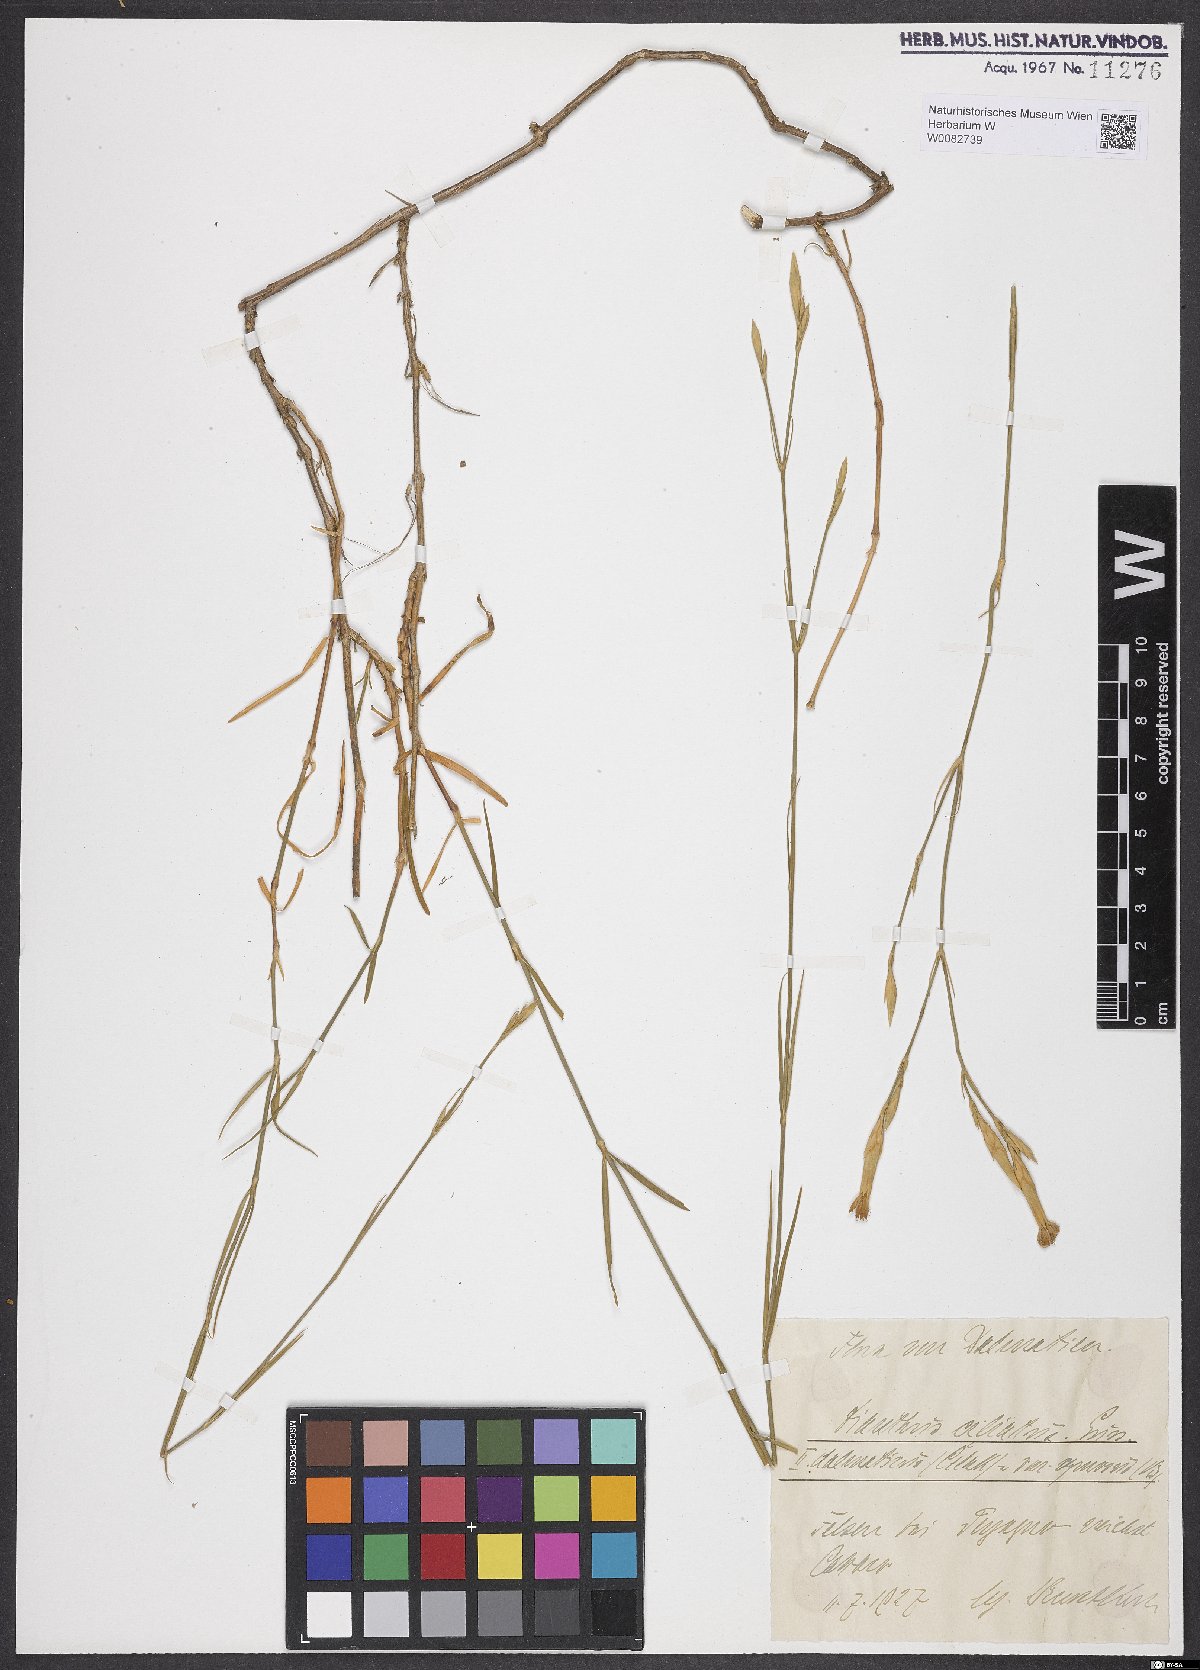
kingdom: Plantae
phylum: Tracheophyta
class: Magnoliopsida
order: Caryophyllales
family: Caryophyllaceae
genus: Dianthus
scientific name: Dianthus ciliatus
